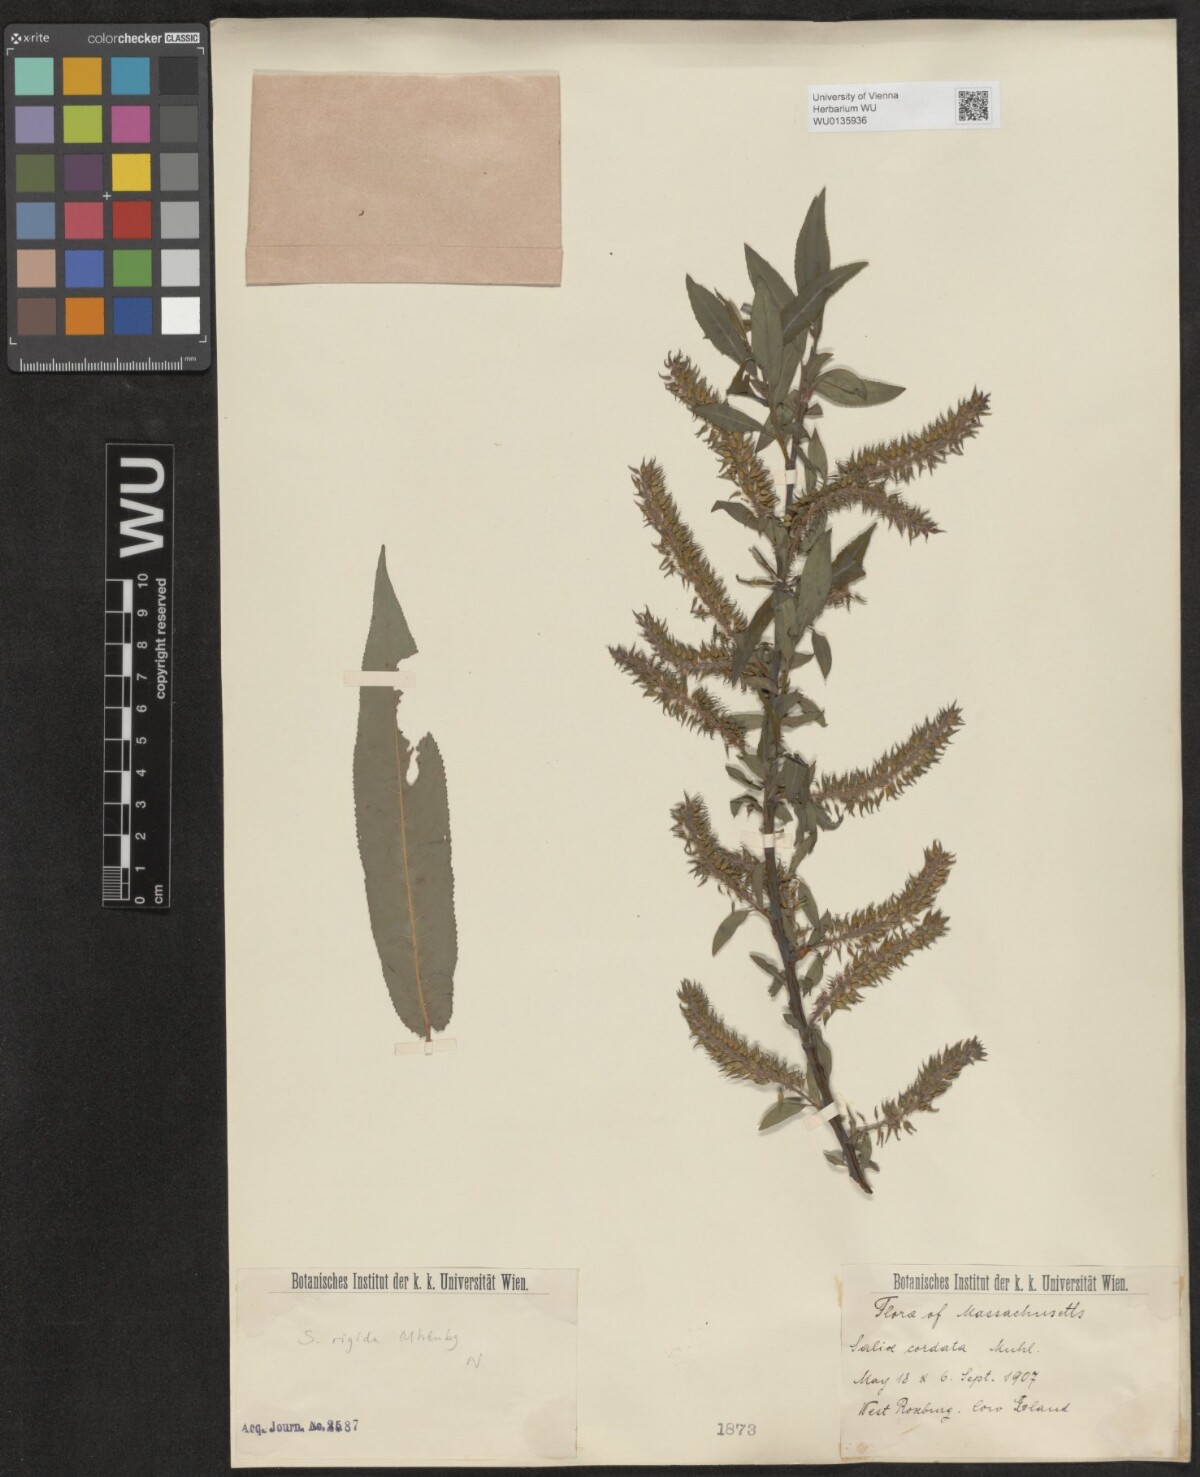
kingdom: Plantae
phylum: Tracheophyta
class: Magnoliopsida
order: Malpighiales
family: Salicaceae
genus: Salix
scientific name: Salix cordata
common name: Heart-leaf willow
